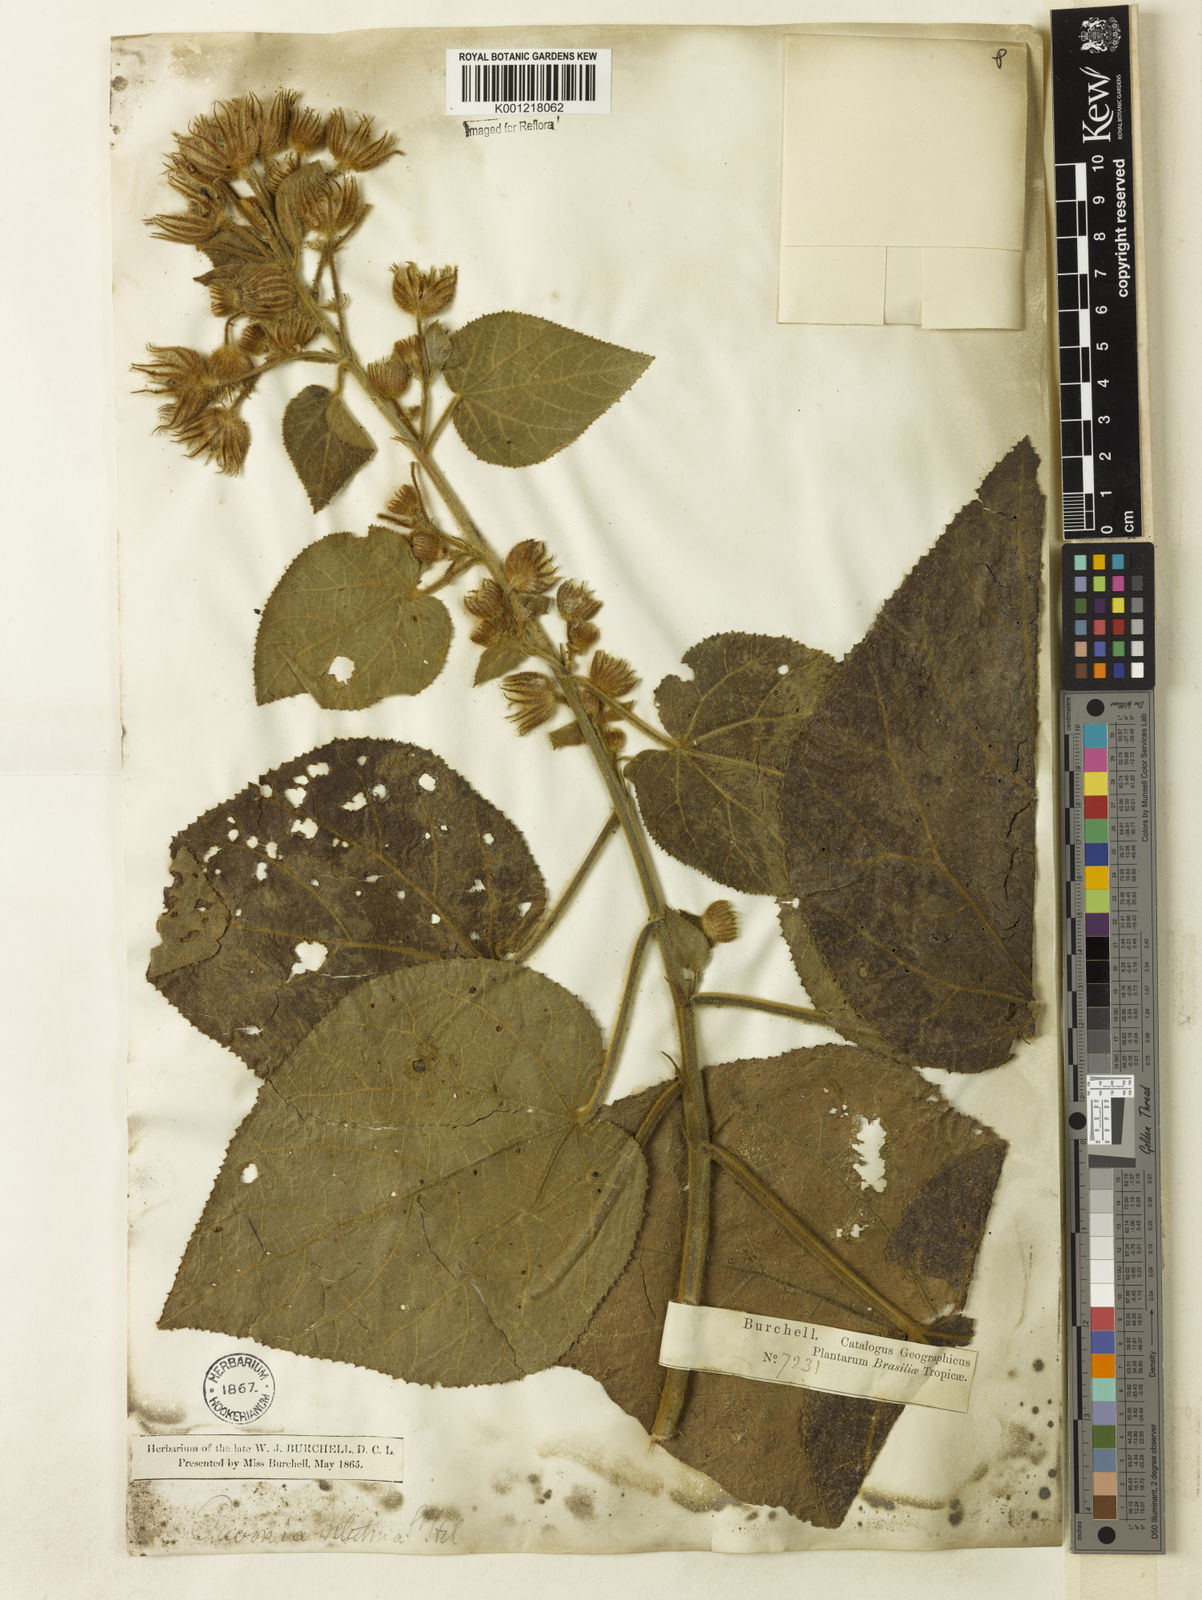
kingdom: Plantae
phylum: Tracheophyta
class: Magnoliopsida
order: Malvales
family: Malvaceae
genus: Pavonia
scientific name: Pavonia malacophylla
